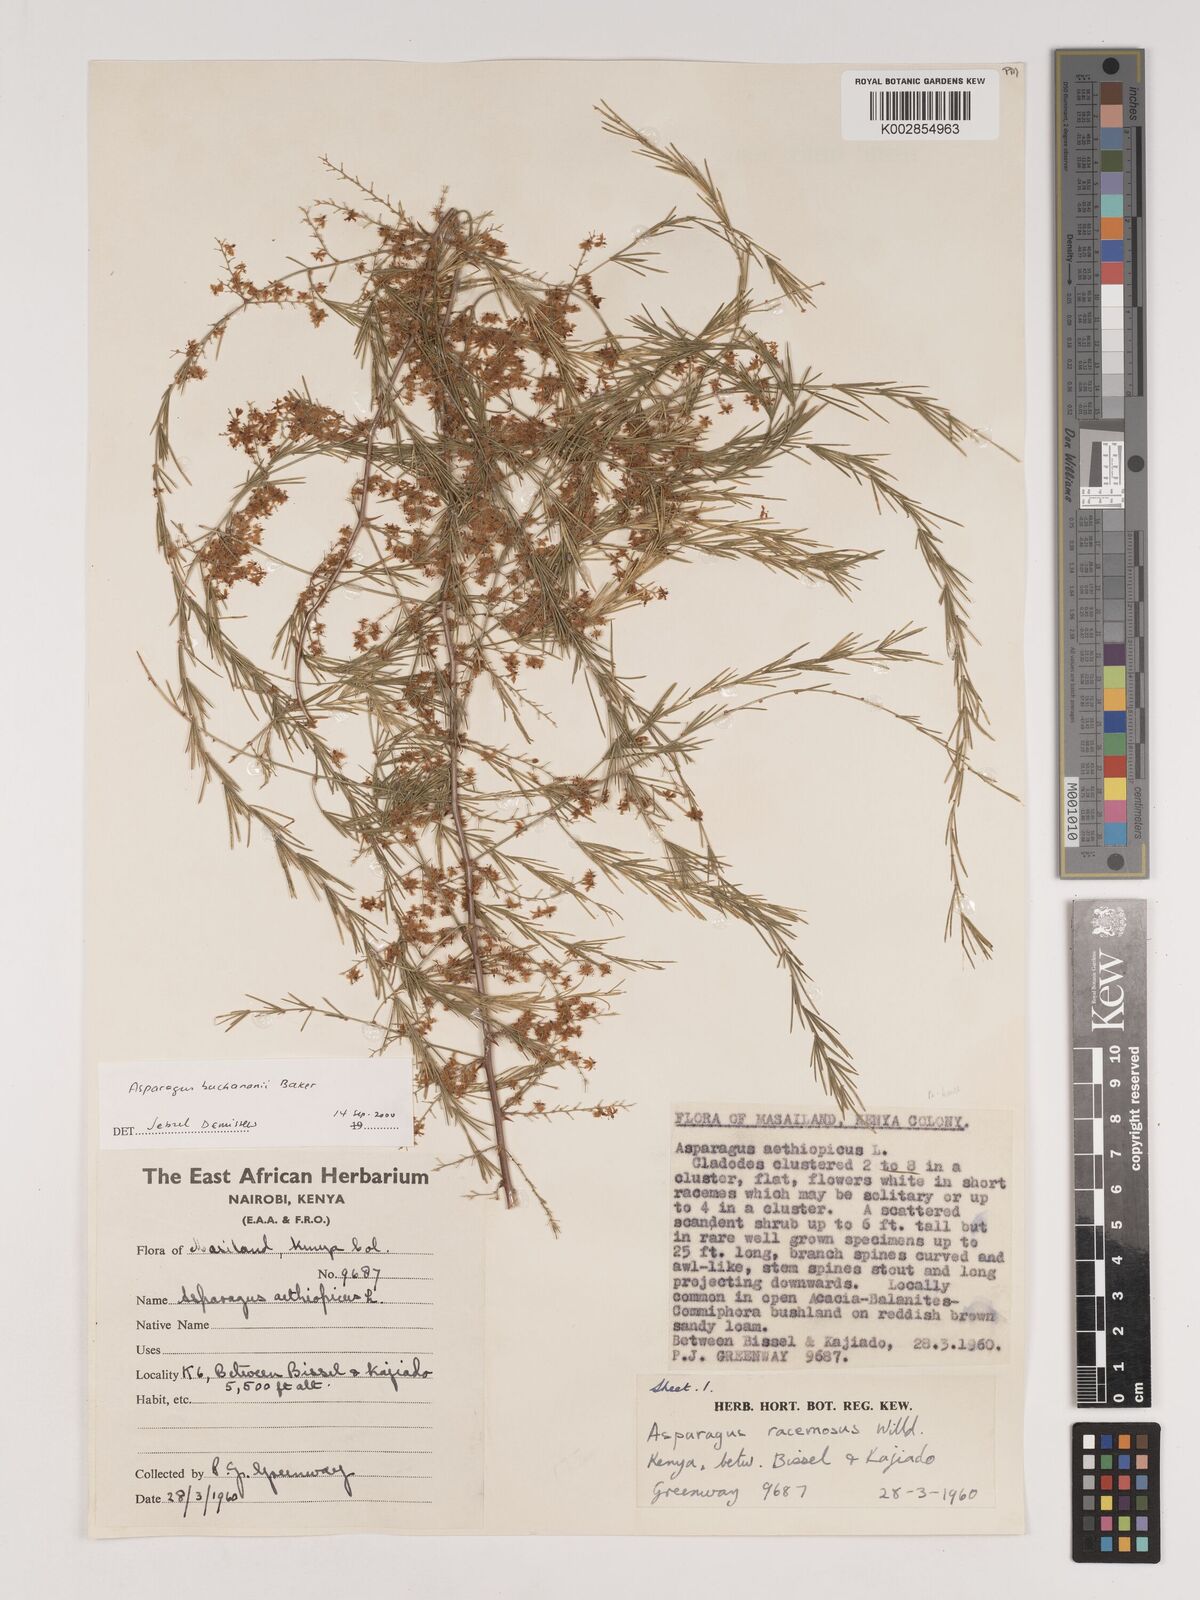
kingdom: Plantae
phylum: Tracheophyta
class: Liliopsida
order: Asparagales
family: Asparagaceae
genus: Asparagus
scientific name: Asparagus buchananii
